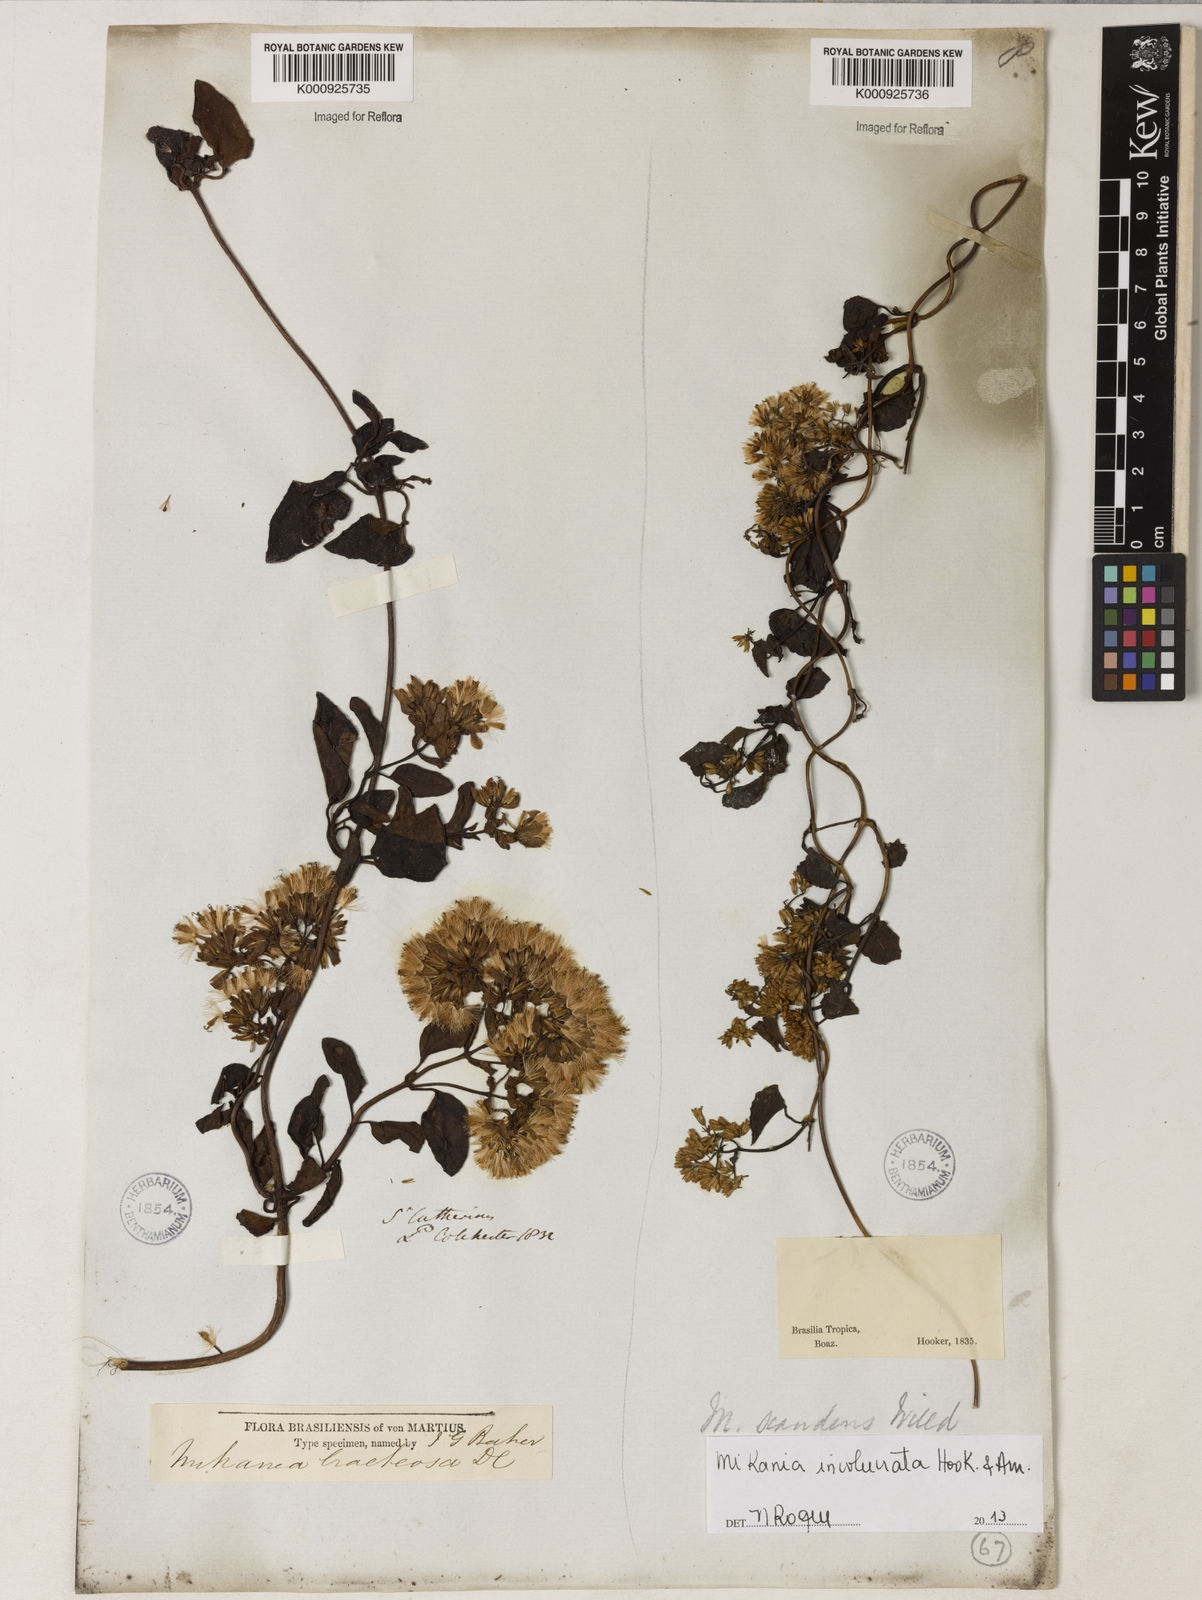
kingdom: Plantae
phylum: Tracheophyta
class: Magnoliopsida
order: Asterales
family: Asteraceae
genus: Mikania
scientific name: Mikania involucrata
